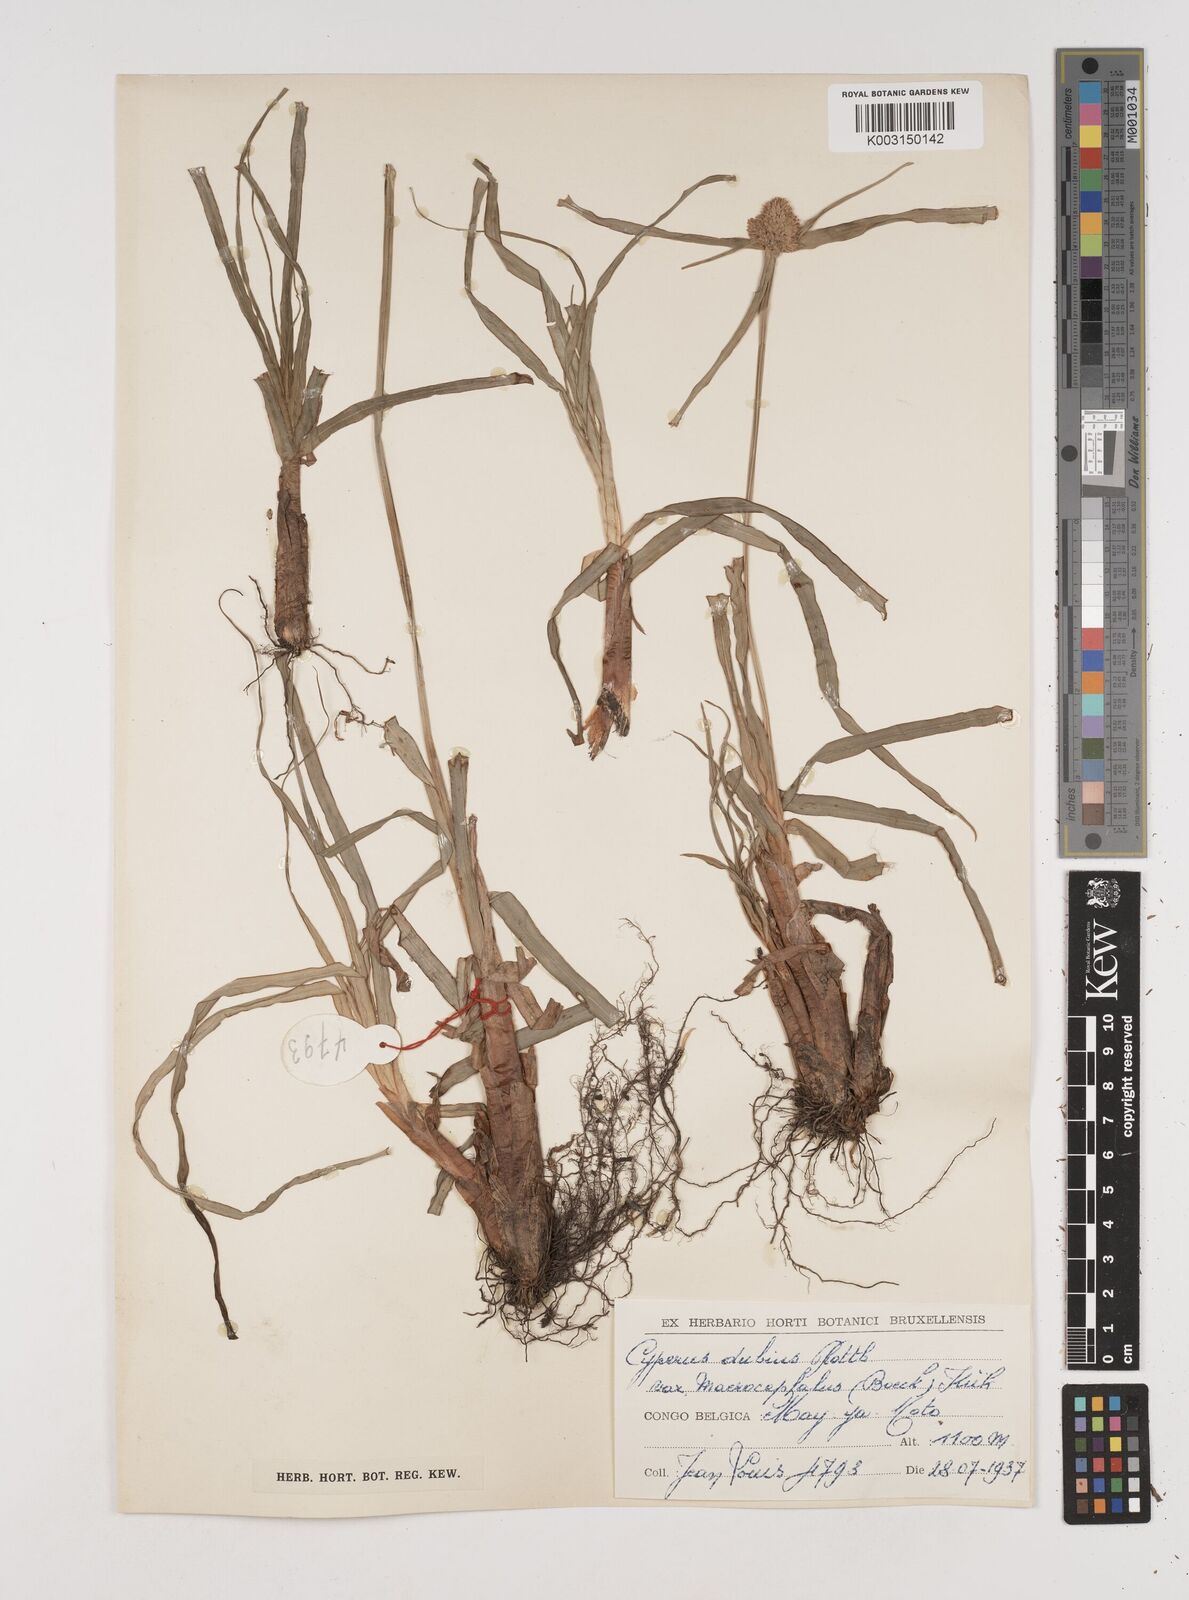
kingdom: Plantae
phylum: Tracheophyta
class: Liliopsida
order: Poales
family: Cyperaceae
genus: Cyperus
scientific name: Cyperus dubius
